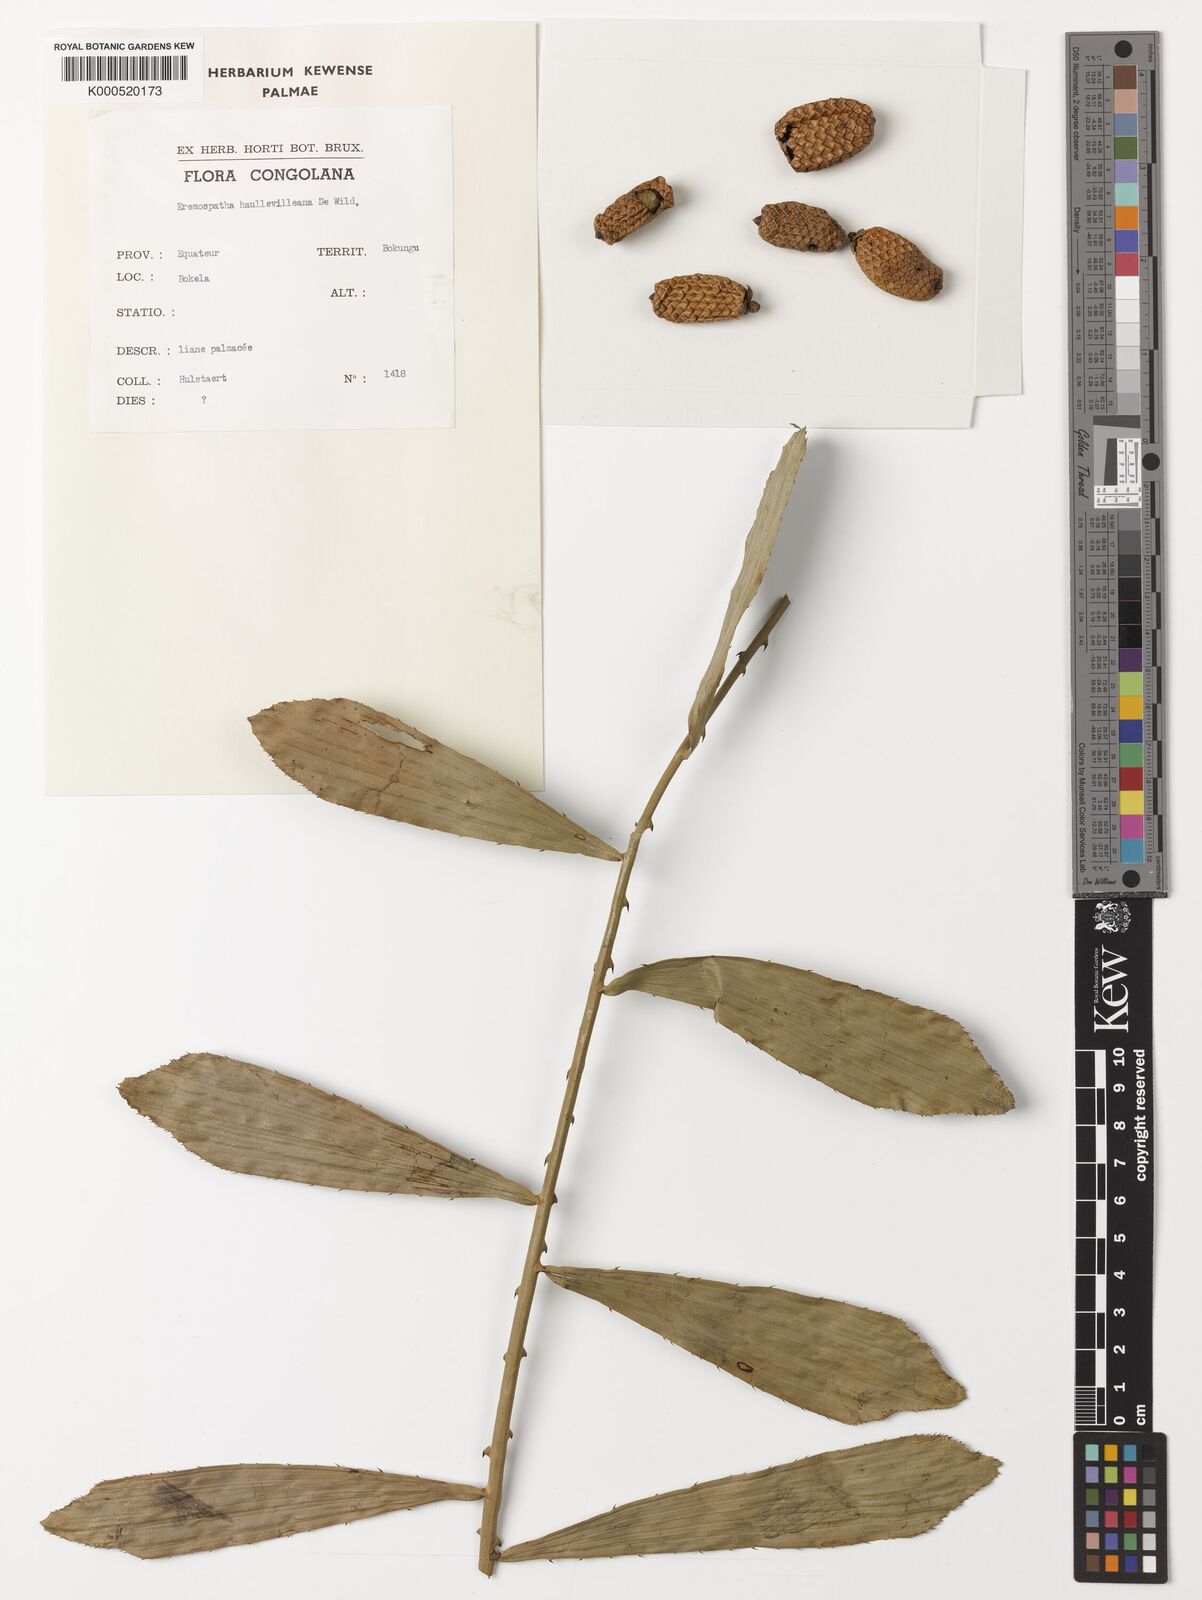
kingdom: Plantae
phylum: Tracheophyta
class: Liliopsida
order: Arecales
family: Arecaceae
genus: Eremospatha
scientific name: Eremospatha haullevilleana
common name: Rattan
